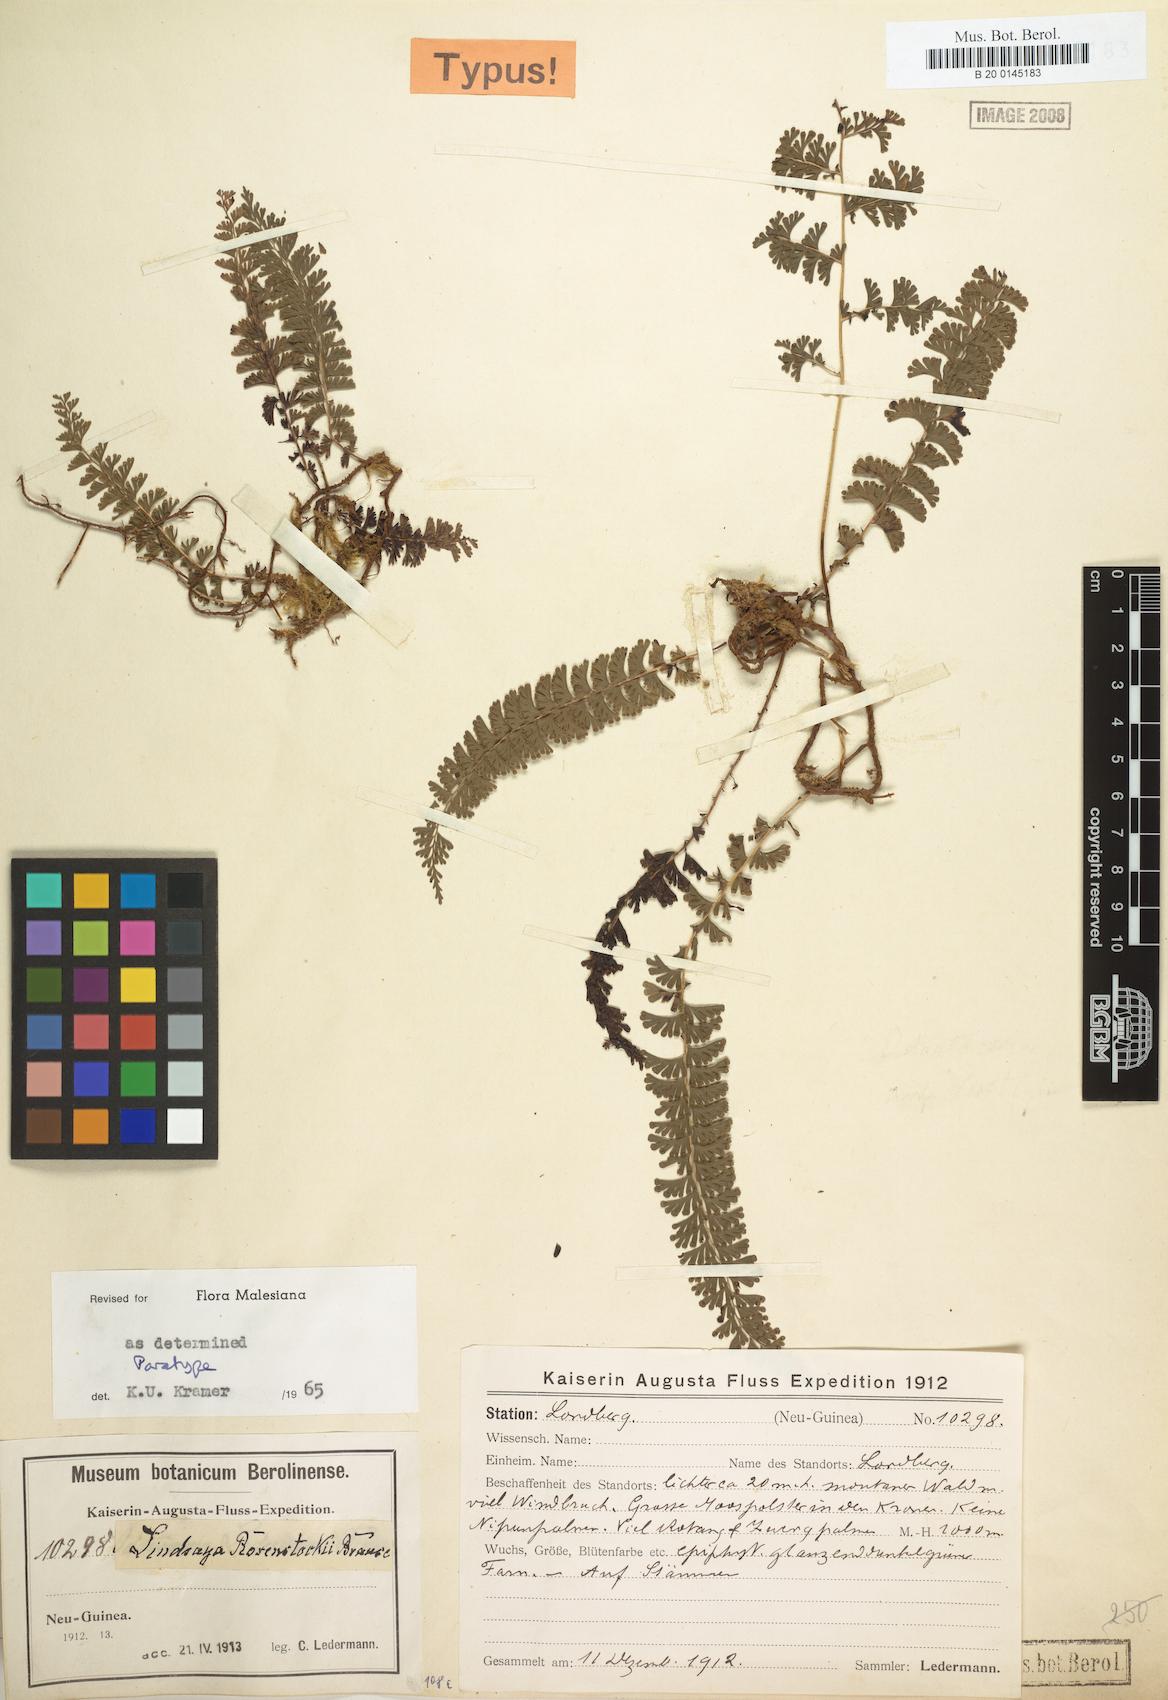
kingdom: Plantae
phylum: Tracheophyta
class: Polypodiopsida
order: Polypodiales
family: Lindsaeaceae
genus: Lindsaea
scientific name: Lindsaea rosenstockii
